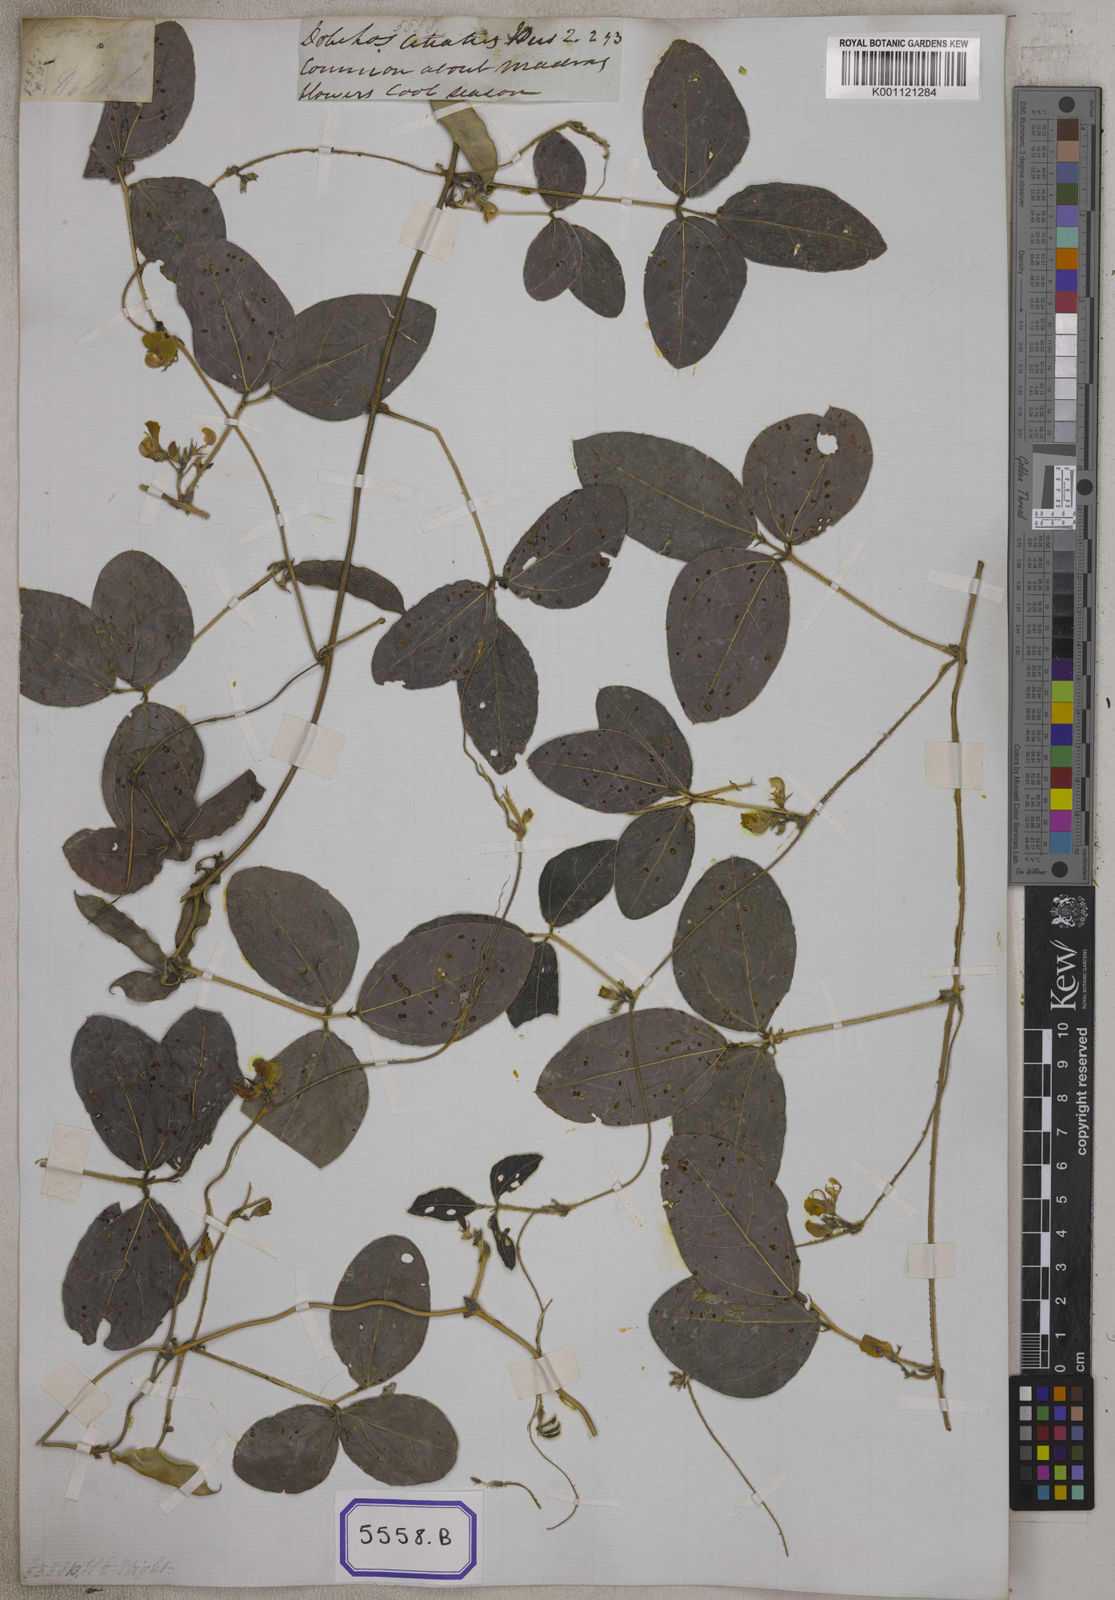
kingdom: Plantae
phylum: Tracheophyta
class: Magnoliopsida
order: Fabales
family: Fabaceae
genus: Macrotyloma
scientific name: Macrotyloma ciliatum
